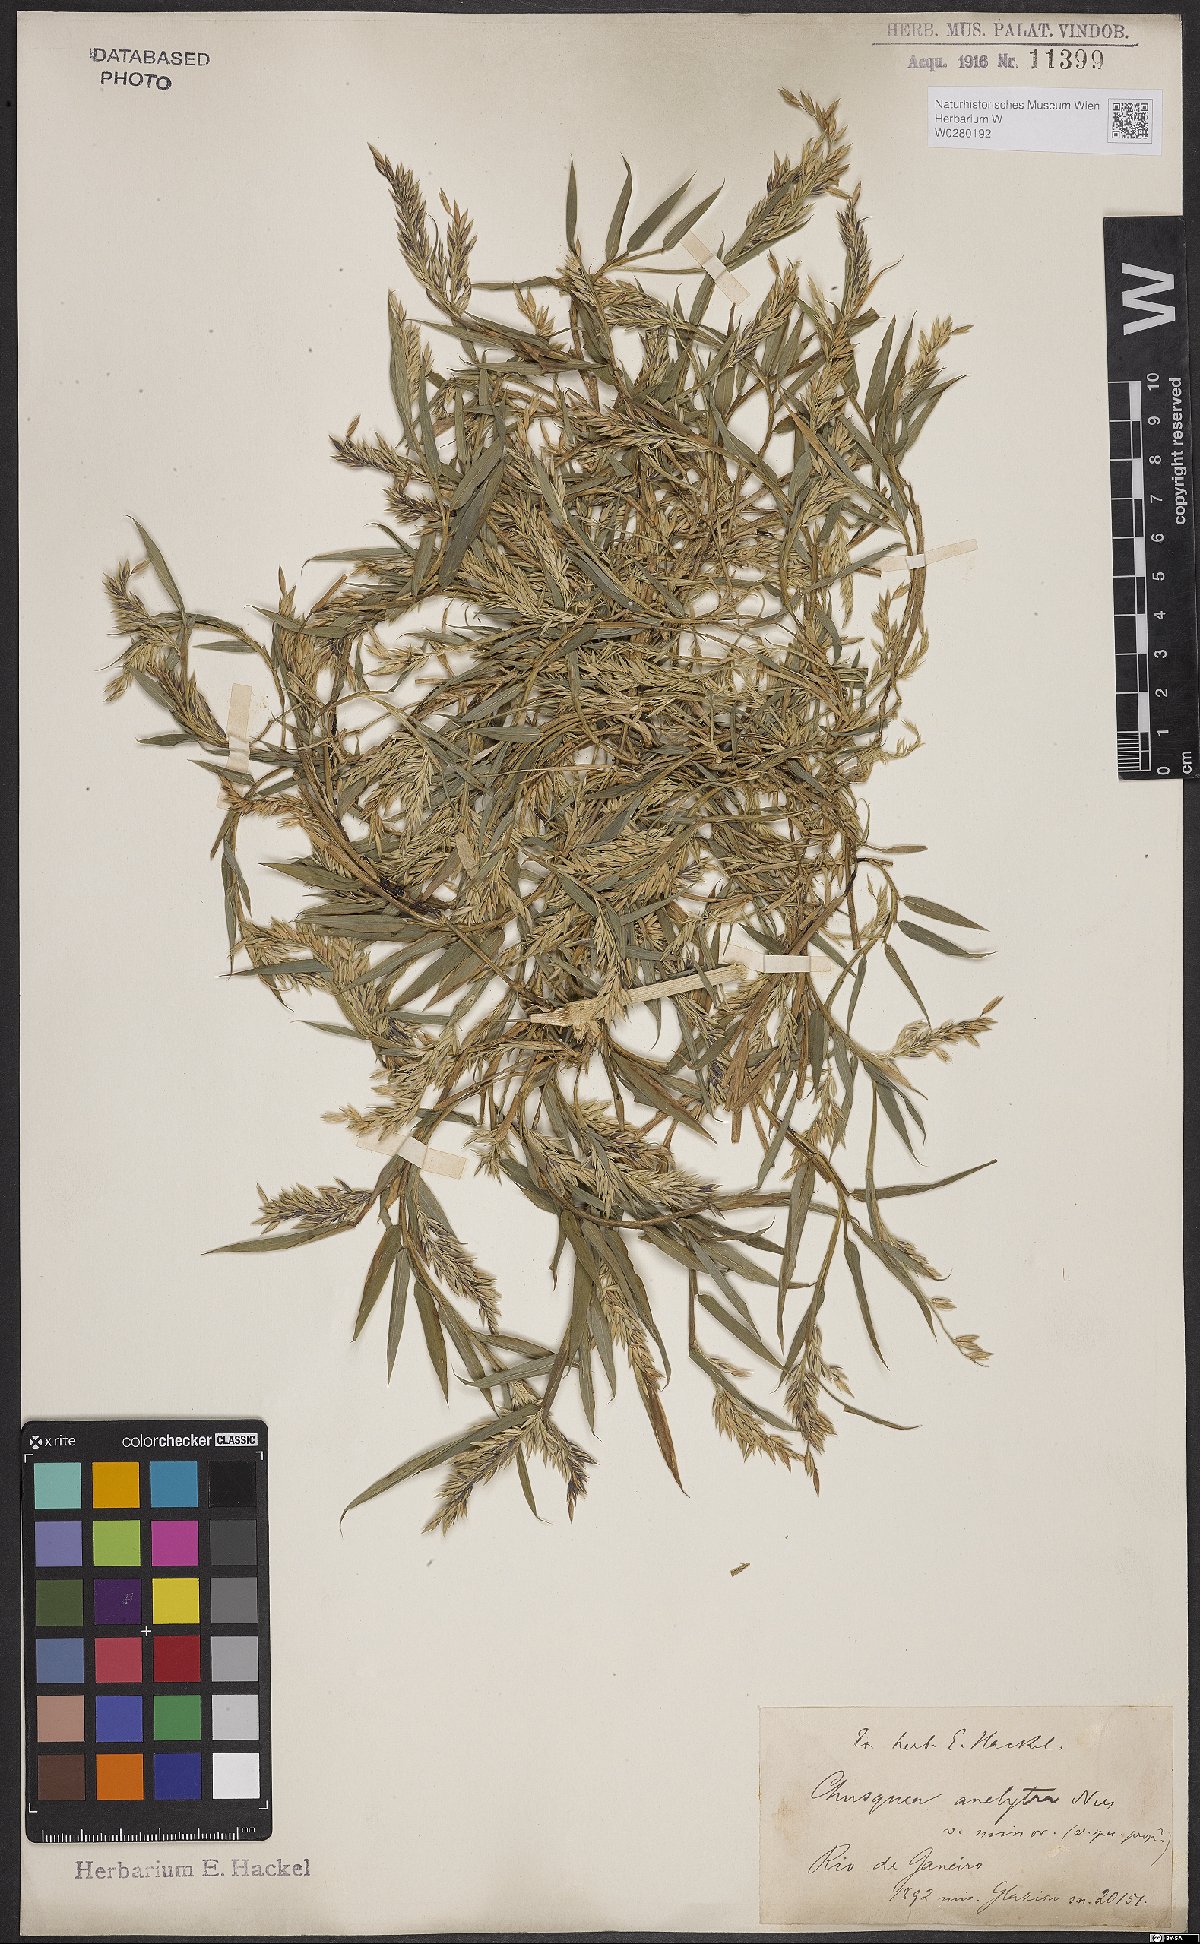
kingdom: Plantae
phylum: Tracheophyta
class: Liliopsida
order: Poales
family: Poaceae
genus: Chusquea
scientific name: Chusquea anelythra
